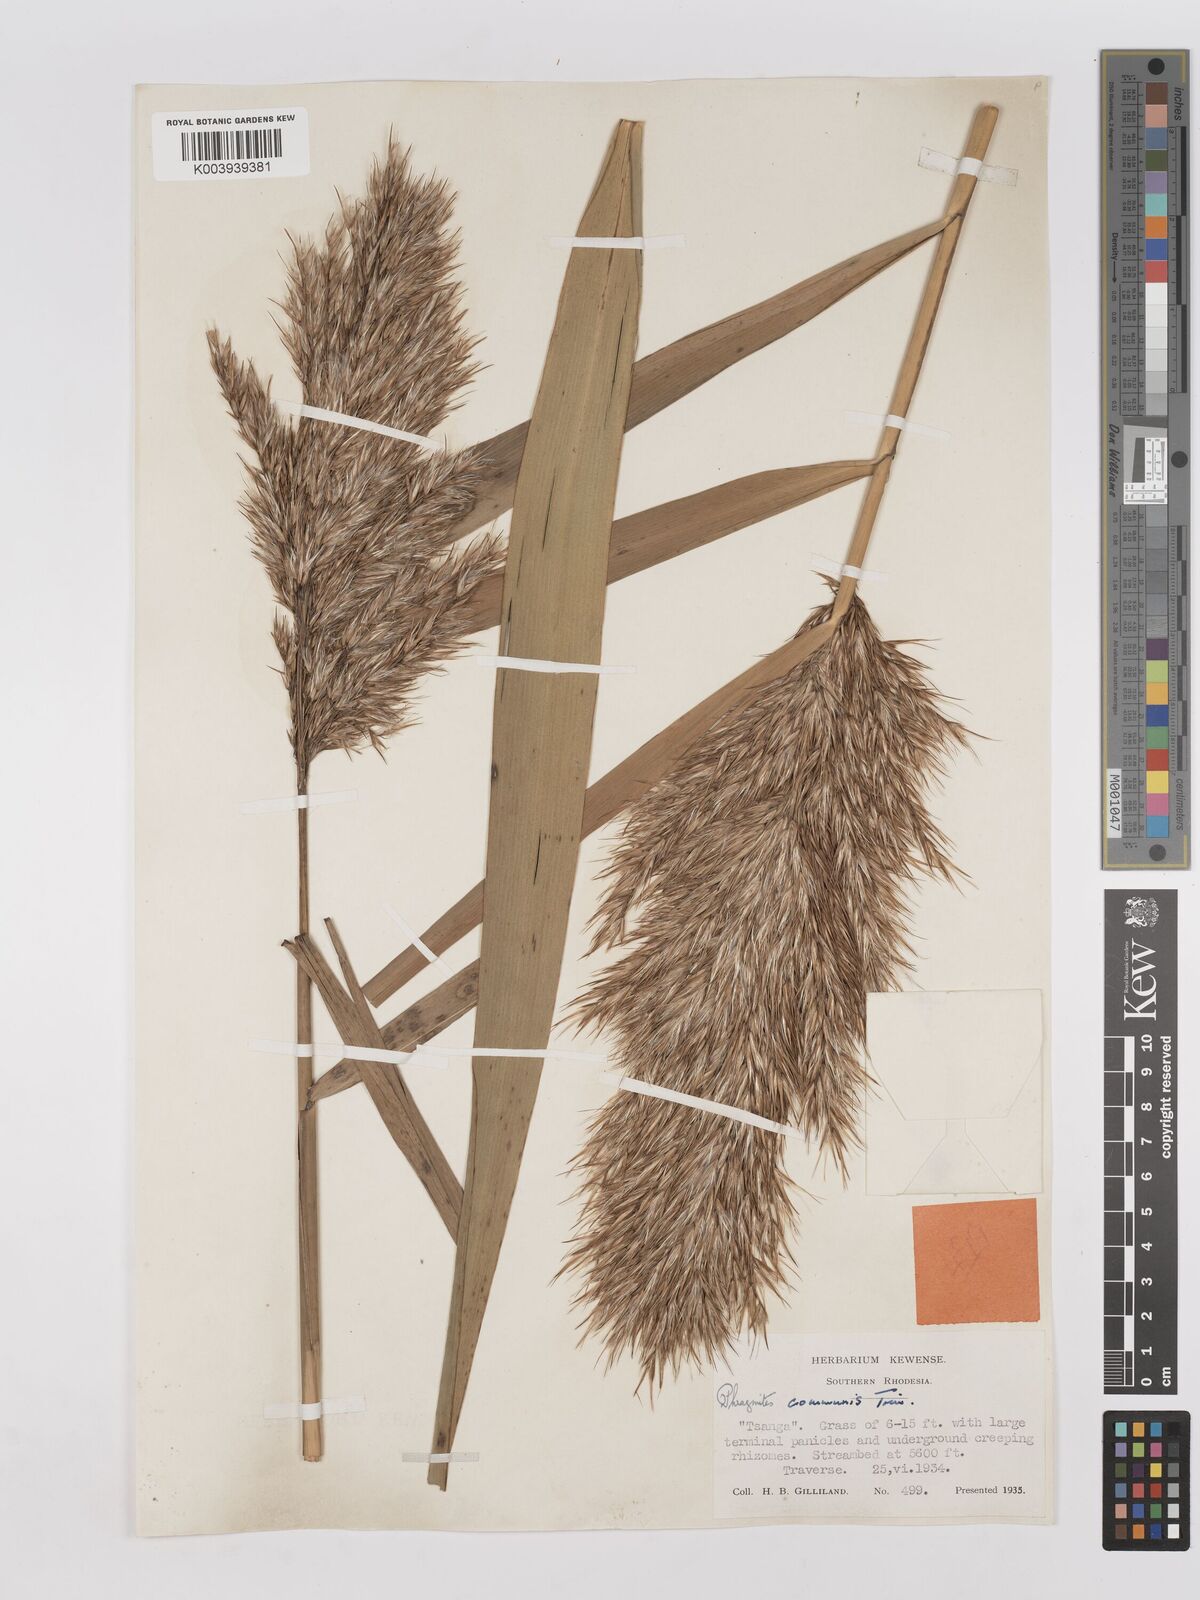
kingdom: Plantae
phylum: Tracheophyta
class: Liliopsida
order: Poales
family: Poaceae
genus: Phragmites
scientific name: Phragmites australis
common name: Common reed
